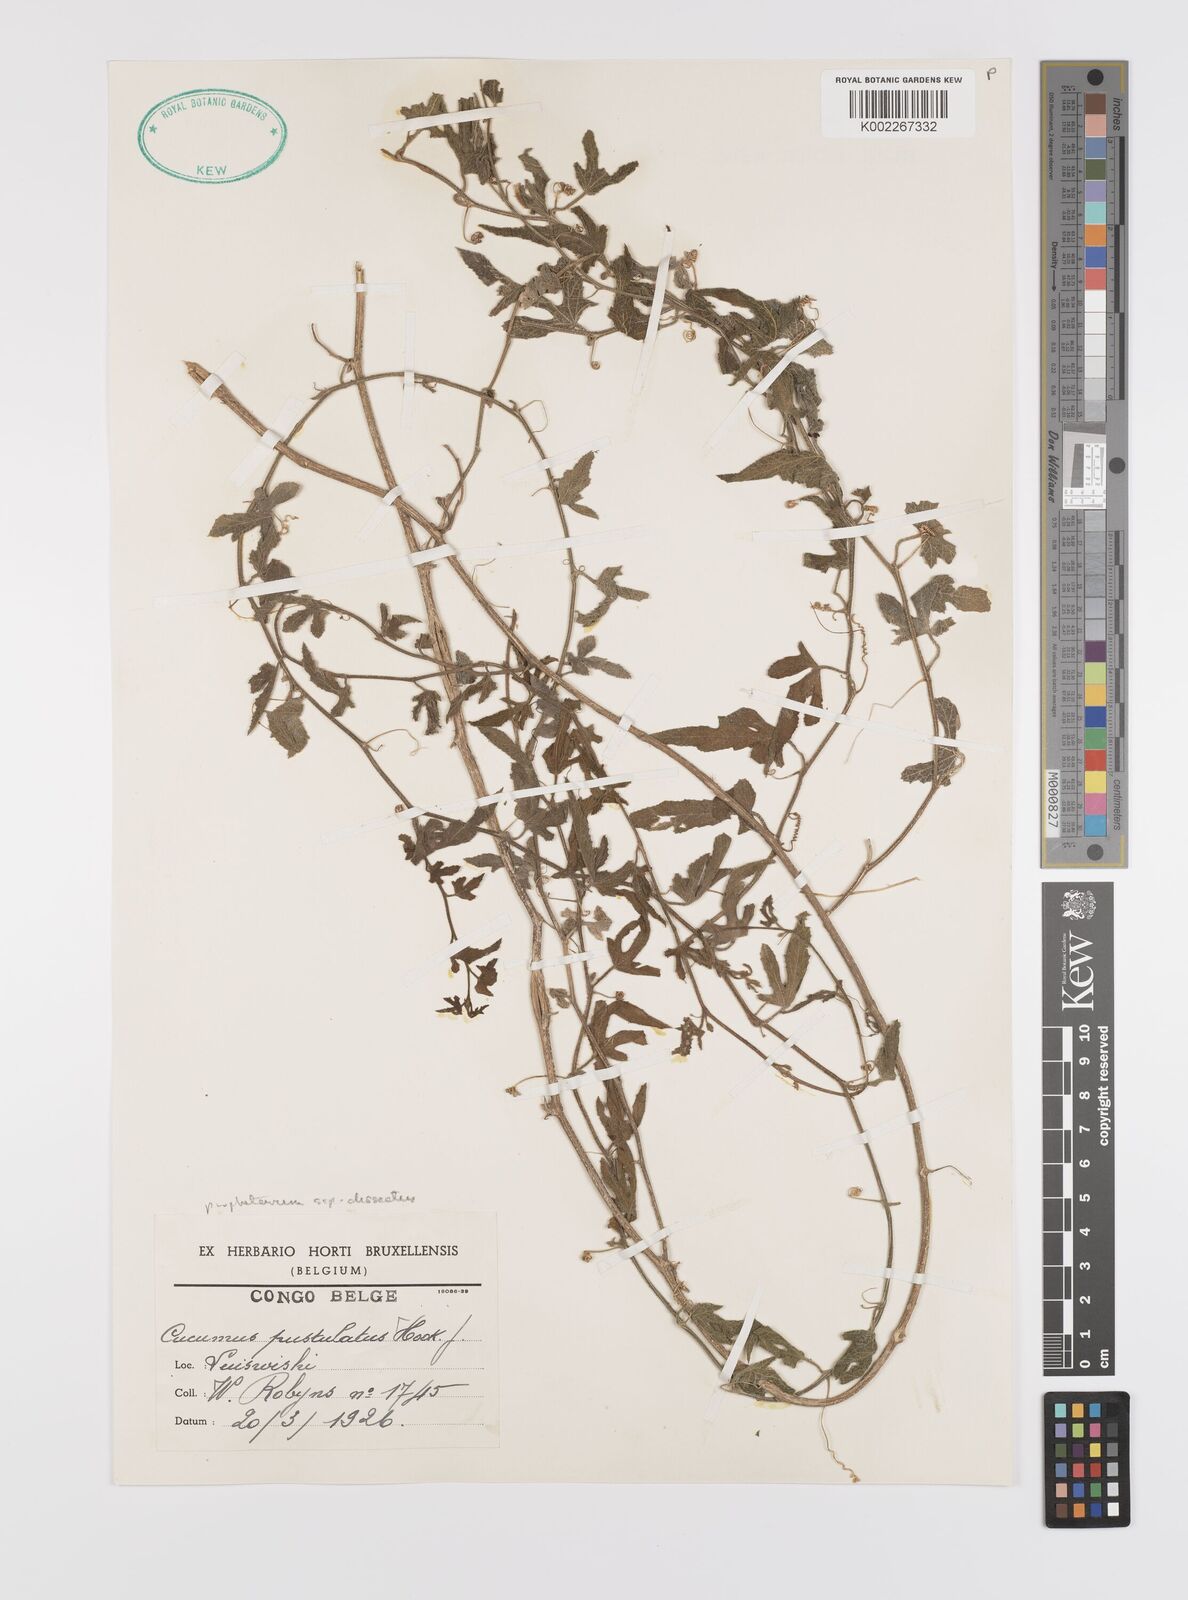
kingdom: Plantae
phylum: Tracheophyta
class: Magnoliopsida
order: Cucurbitales
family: Cucurbitaceae
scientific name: Cucurbitaceae
